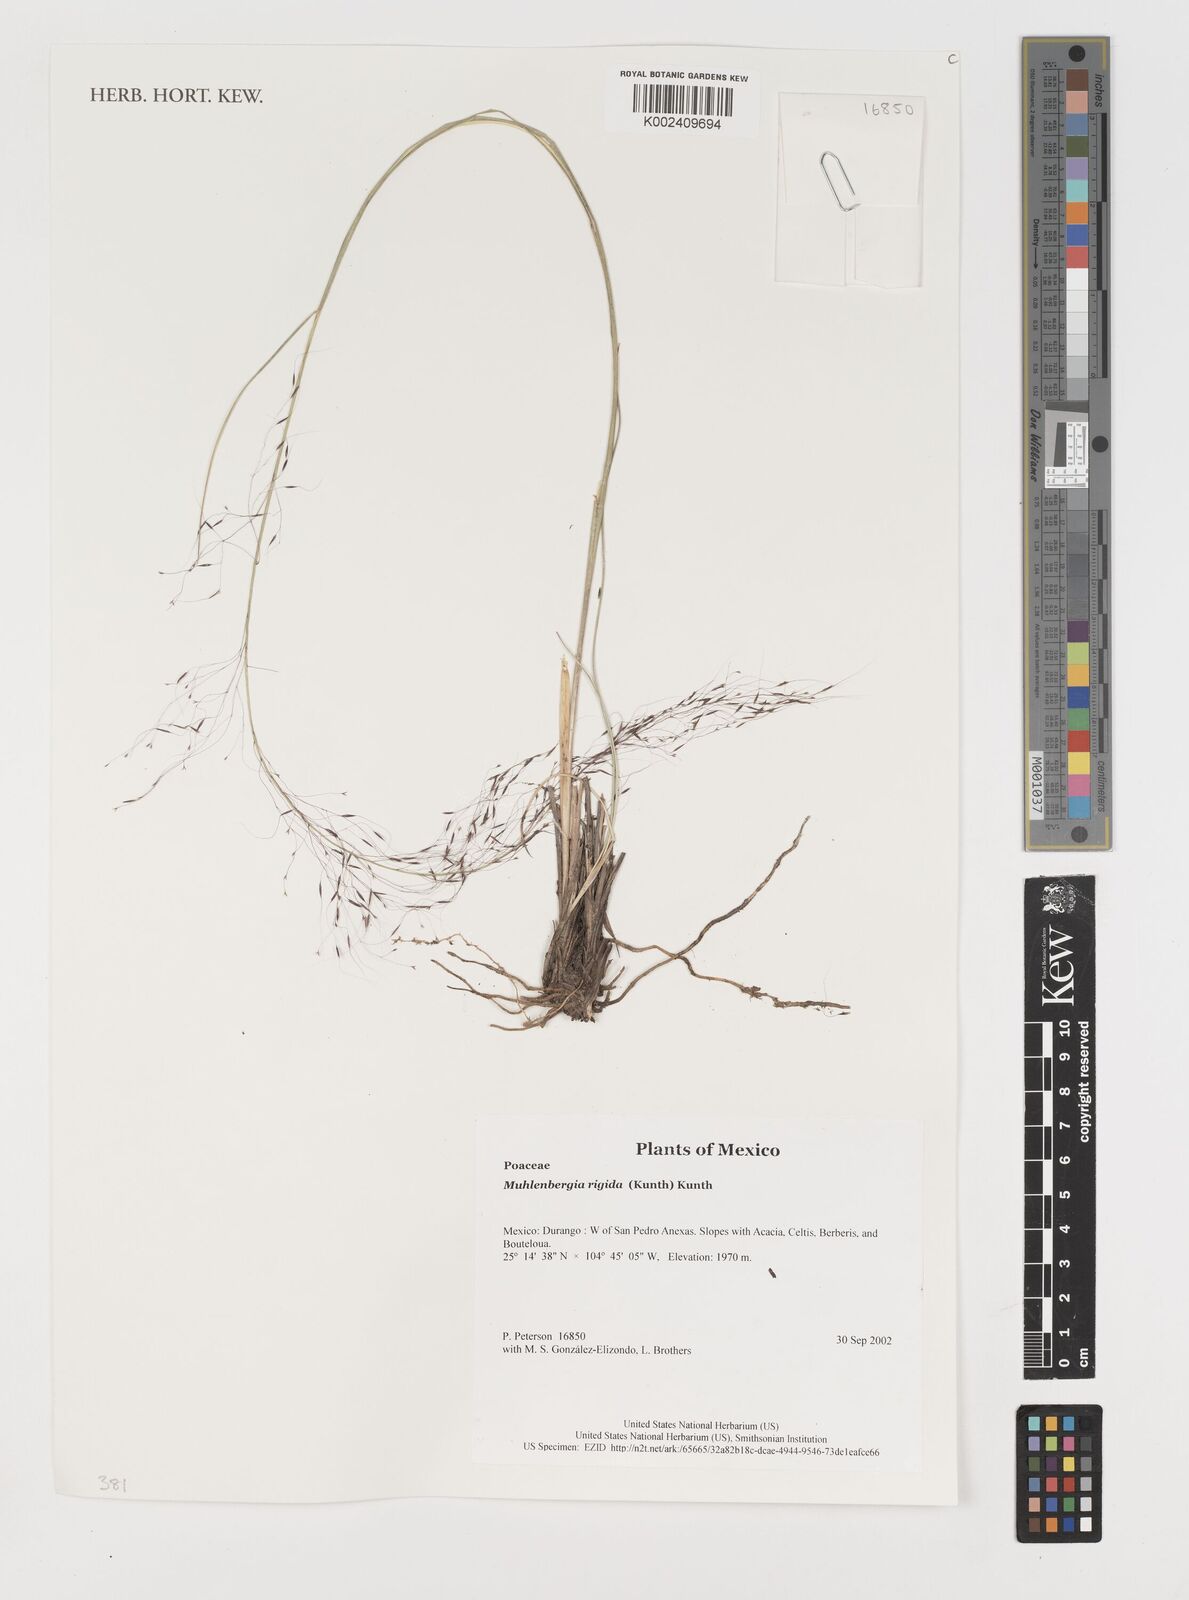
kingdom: Plantae
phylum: Tracheophyta
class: Liliopsida
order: Poales
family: Poaceae
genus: Muhlenbergia
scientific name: Muhlenbergia rigida
